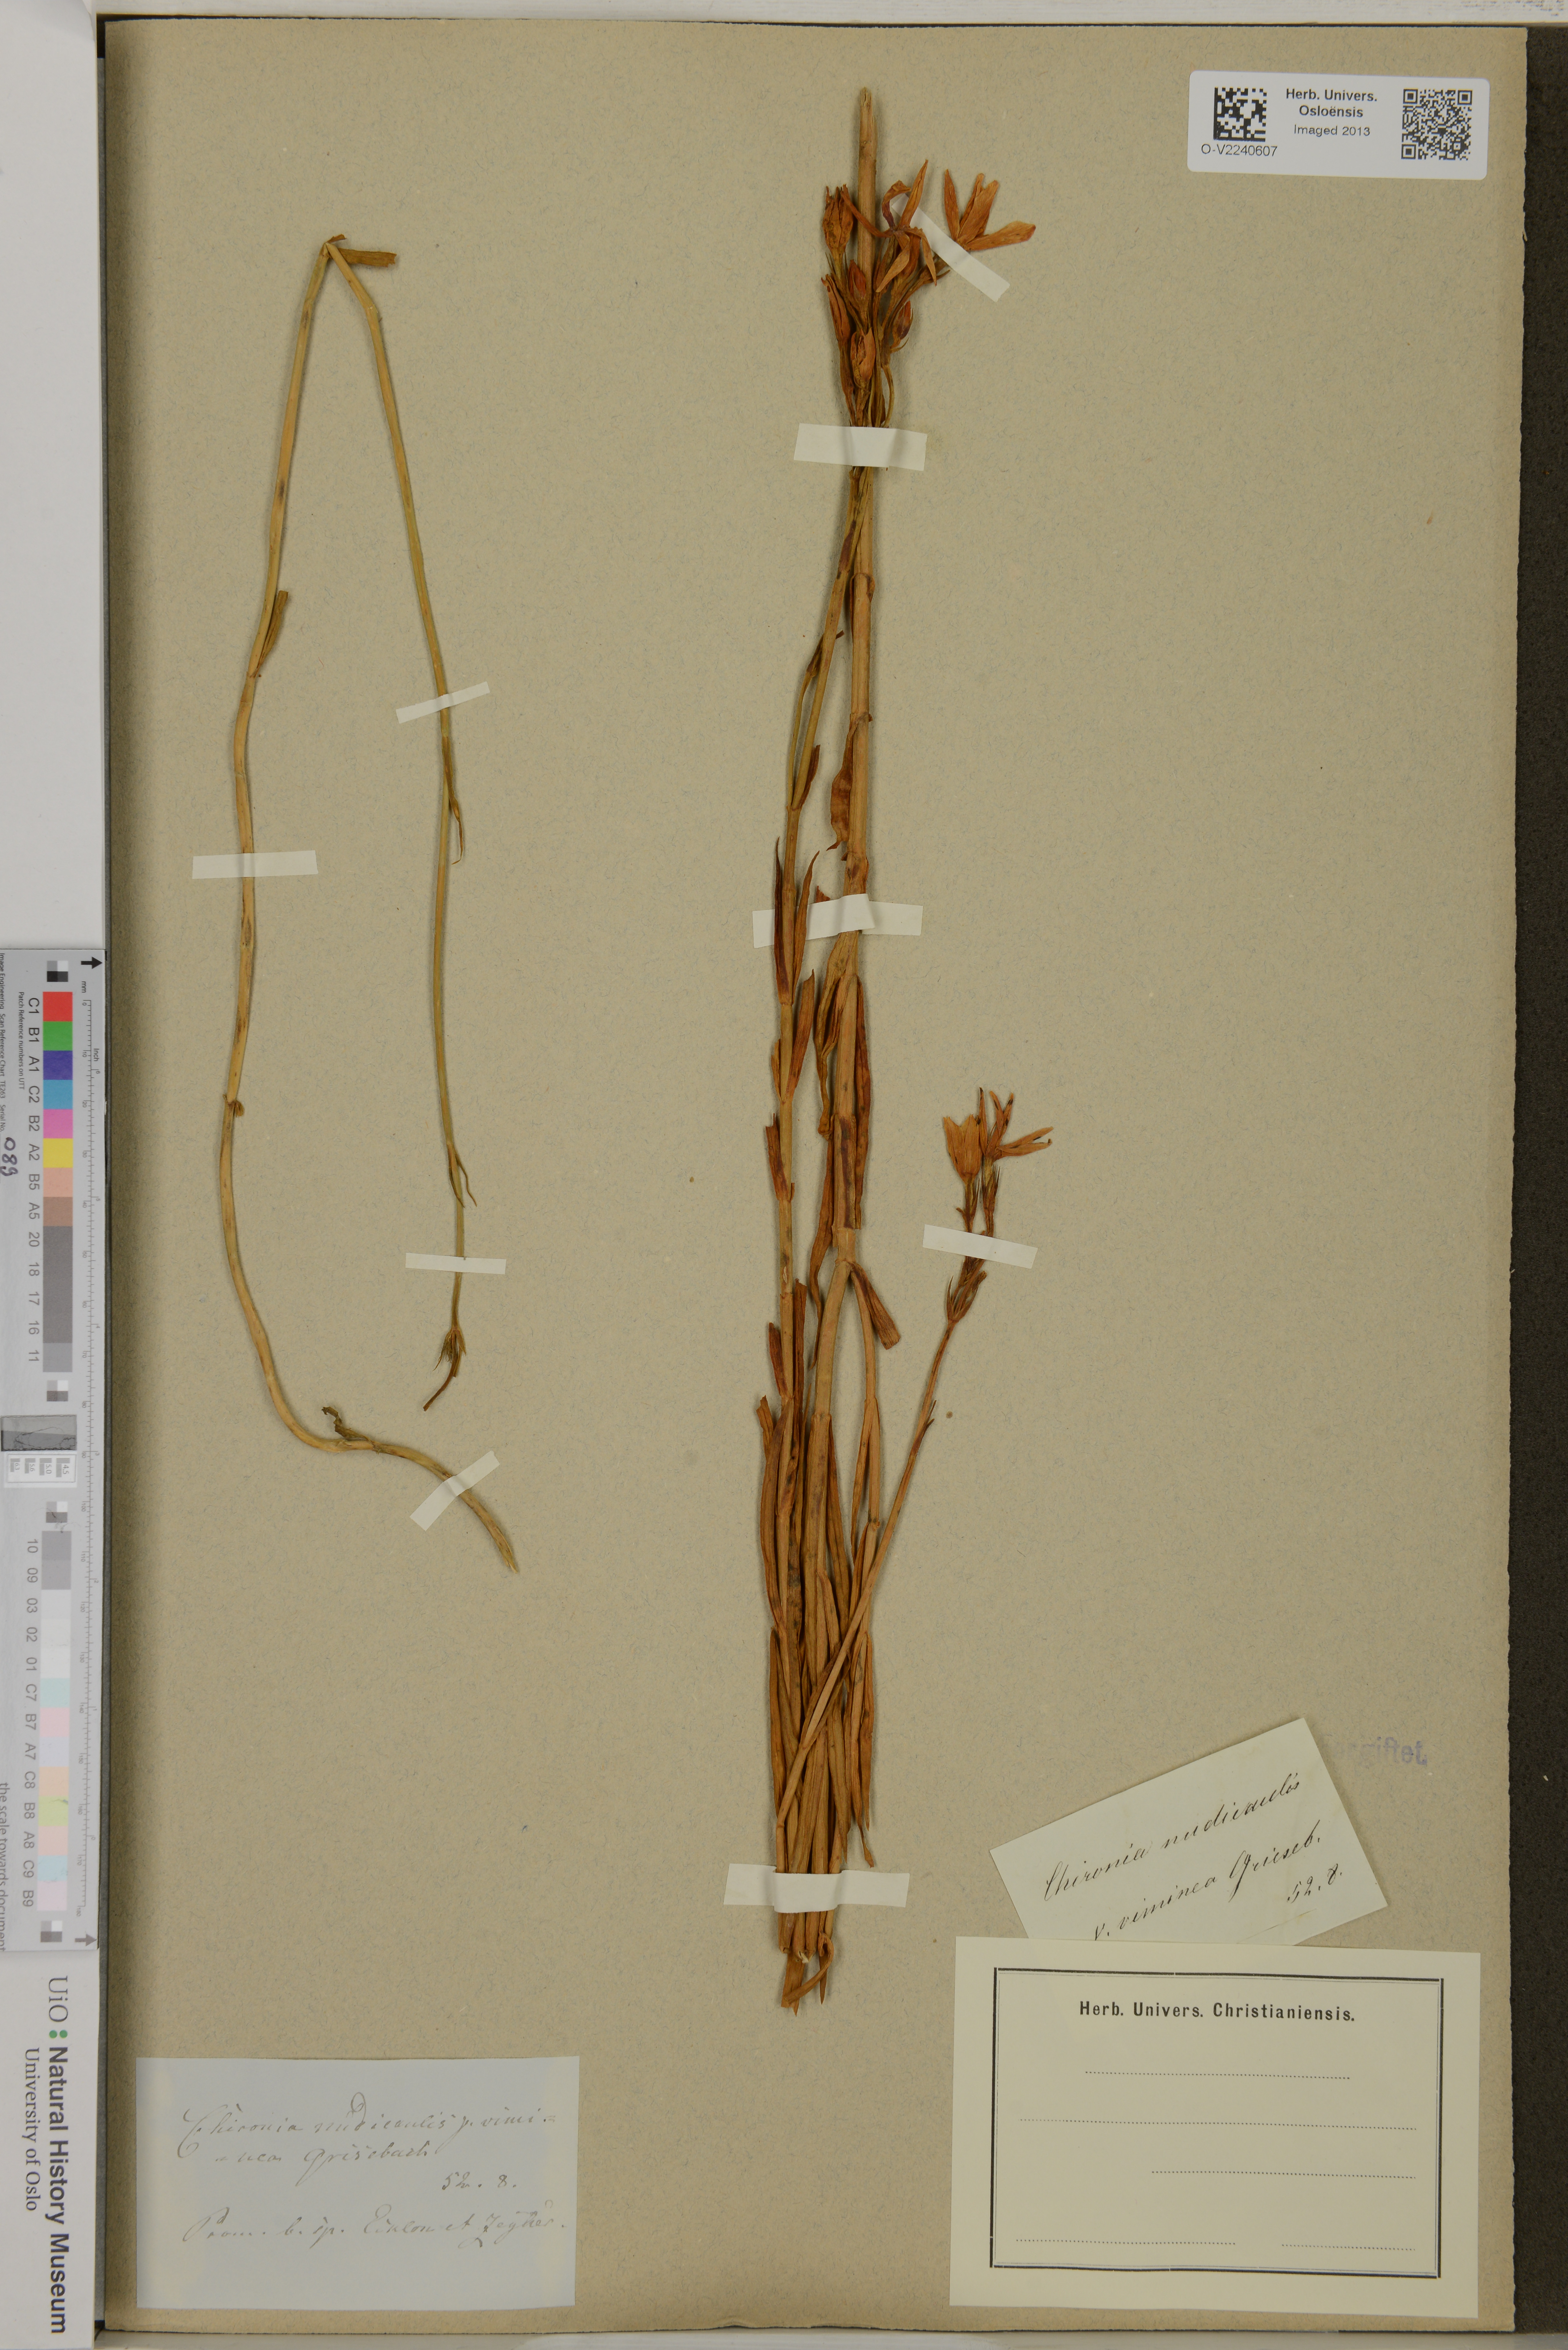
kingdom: Plantae
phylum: Tracheophyta
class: Magnoliopsida
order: Gentianales
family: Gentianaceae
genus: Chironia
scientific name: Chironia jasminoides
